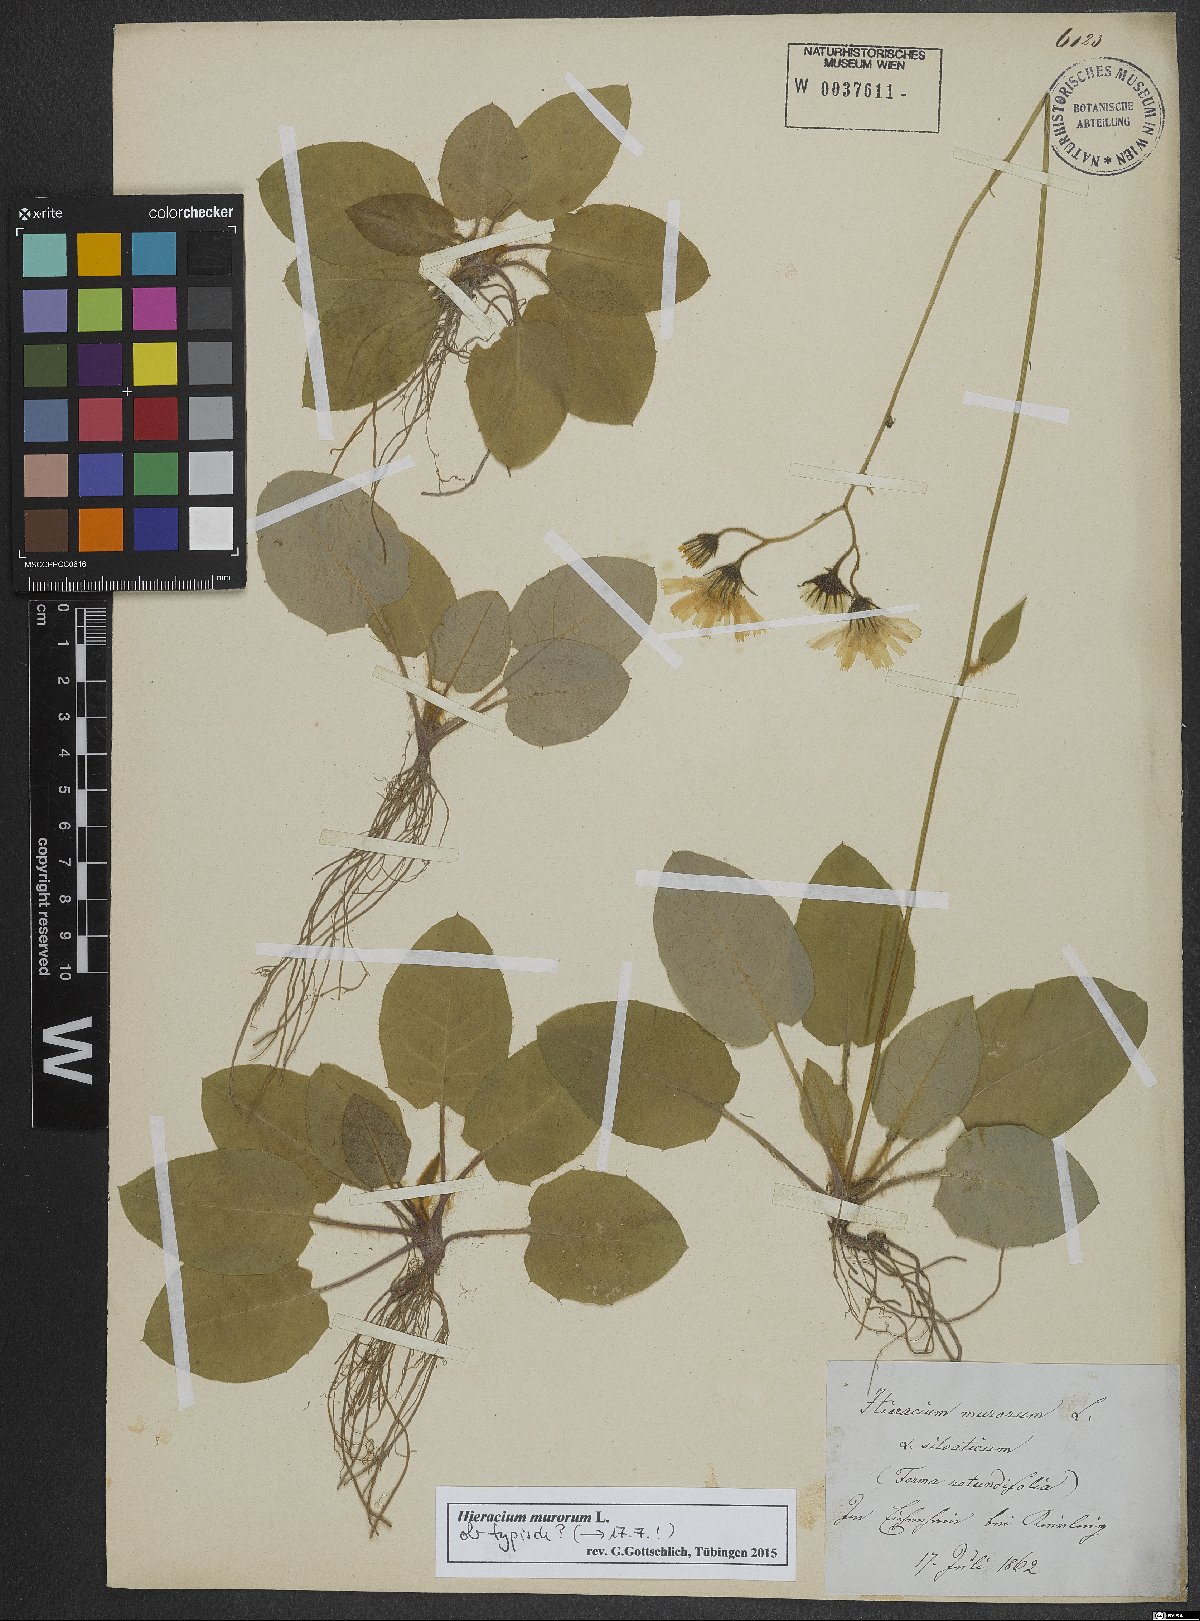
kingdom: Plantae
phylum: Tracheophyta
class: Magnoliopsida
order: Asterales
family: Asteraceae
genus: Hieracium
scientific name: Hieracium murorum
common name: Wall hawkweed
